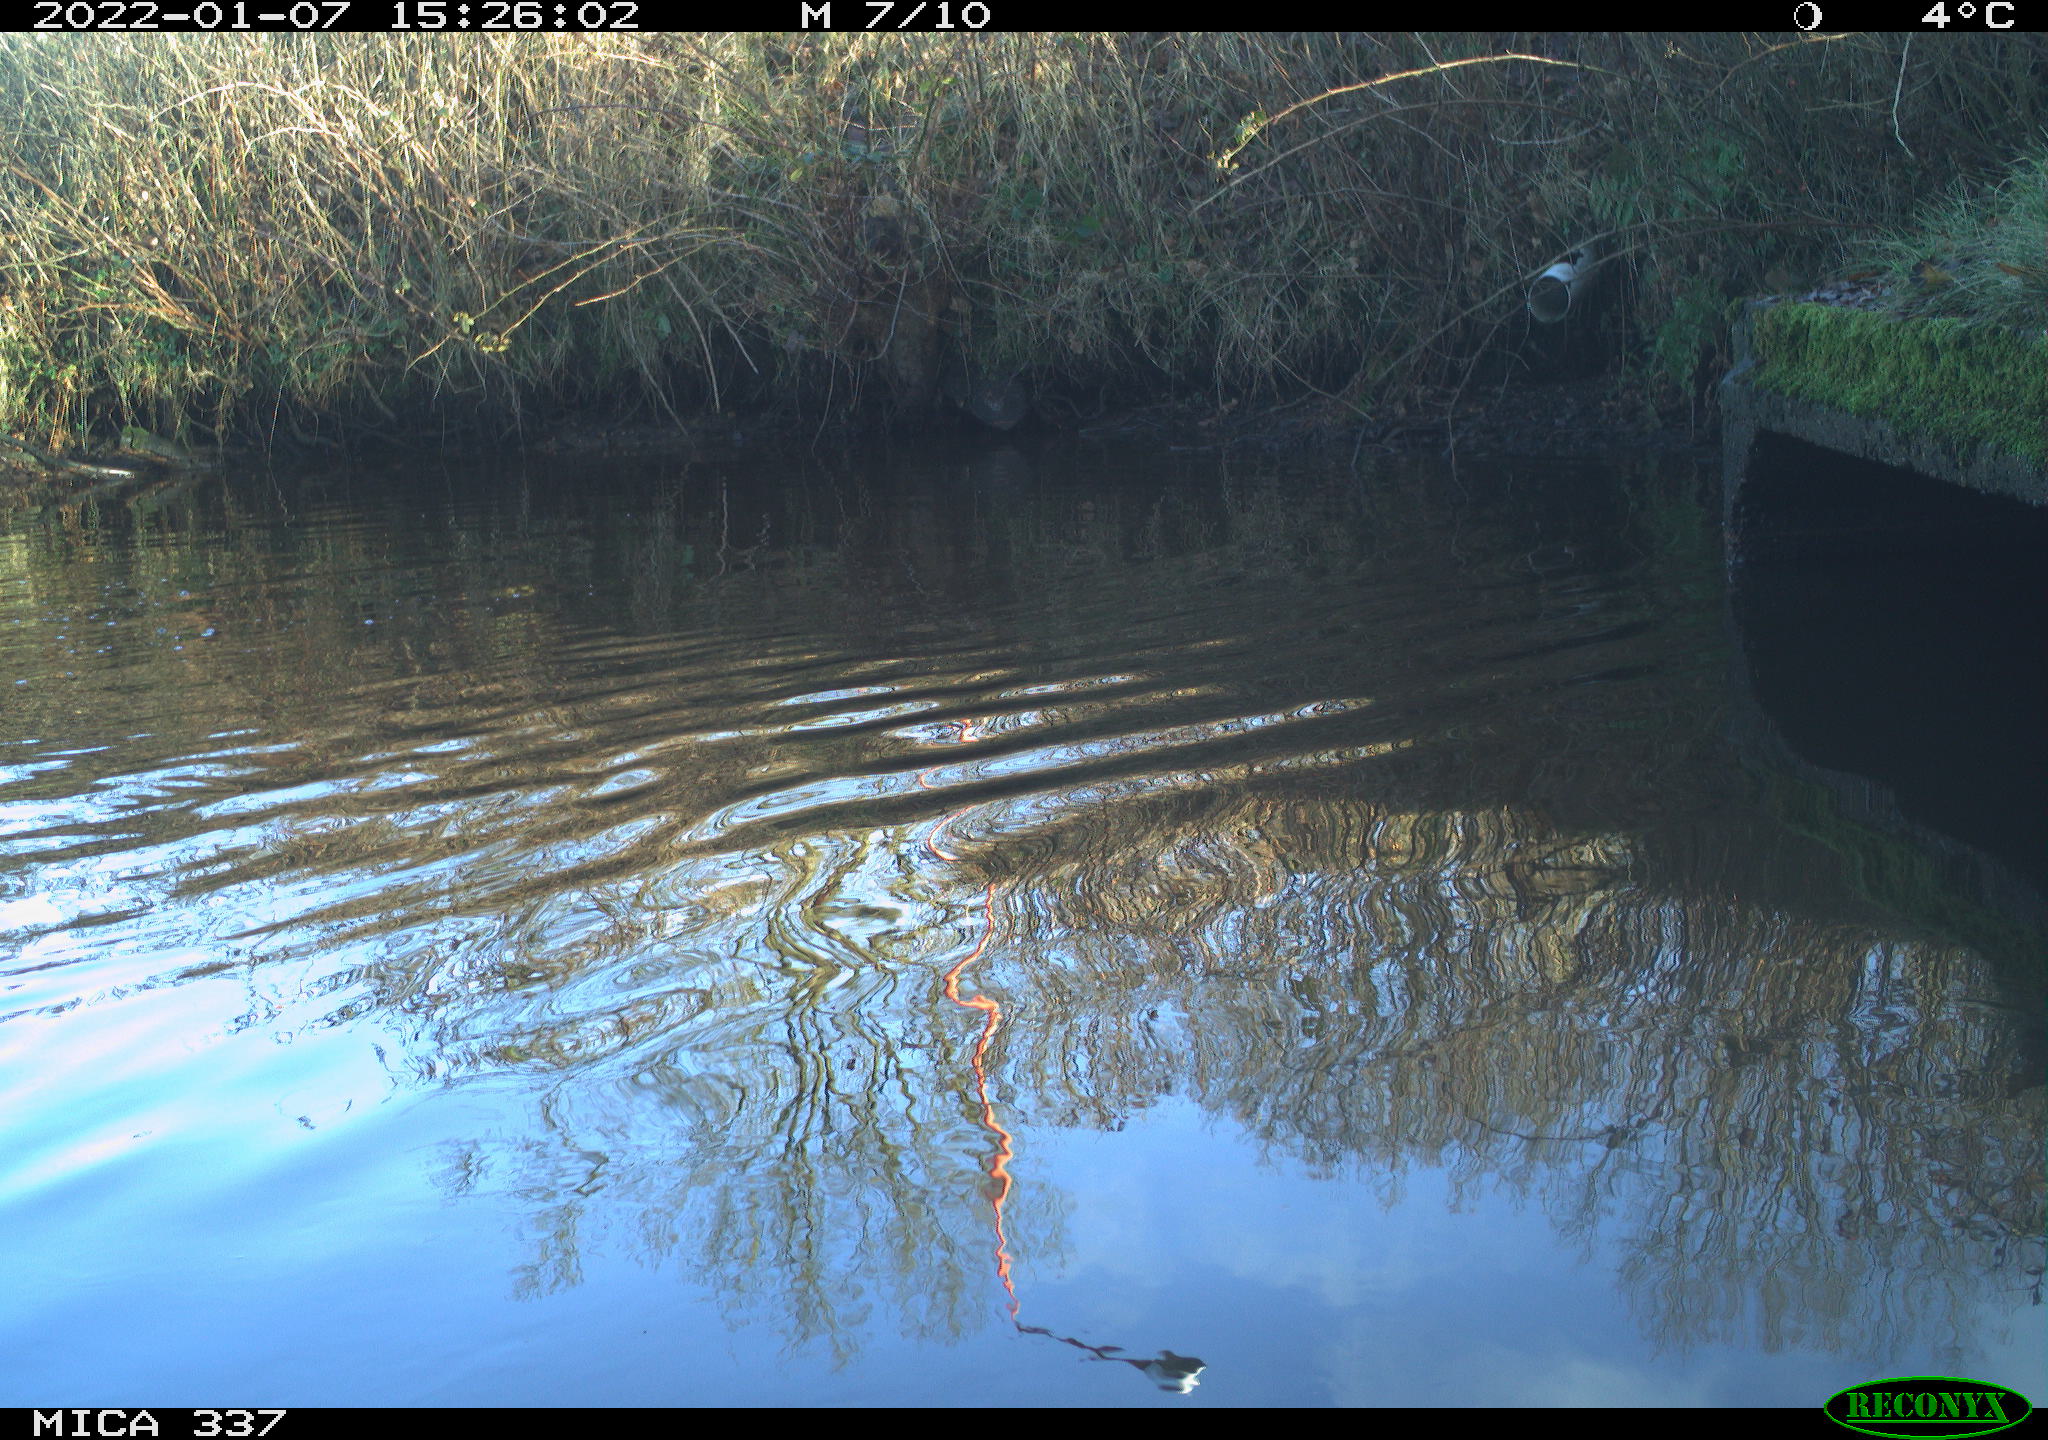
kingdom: Animalia
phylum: Chordata
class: Aves
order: Anseriformes
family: Anatidae
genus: Anas
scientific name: Anas platyrhynchos
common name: Mallard
